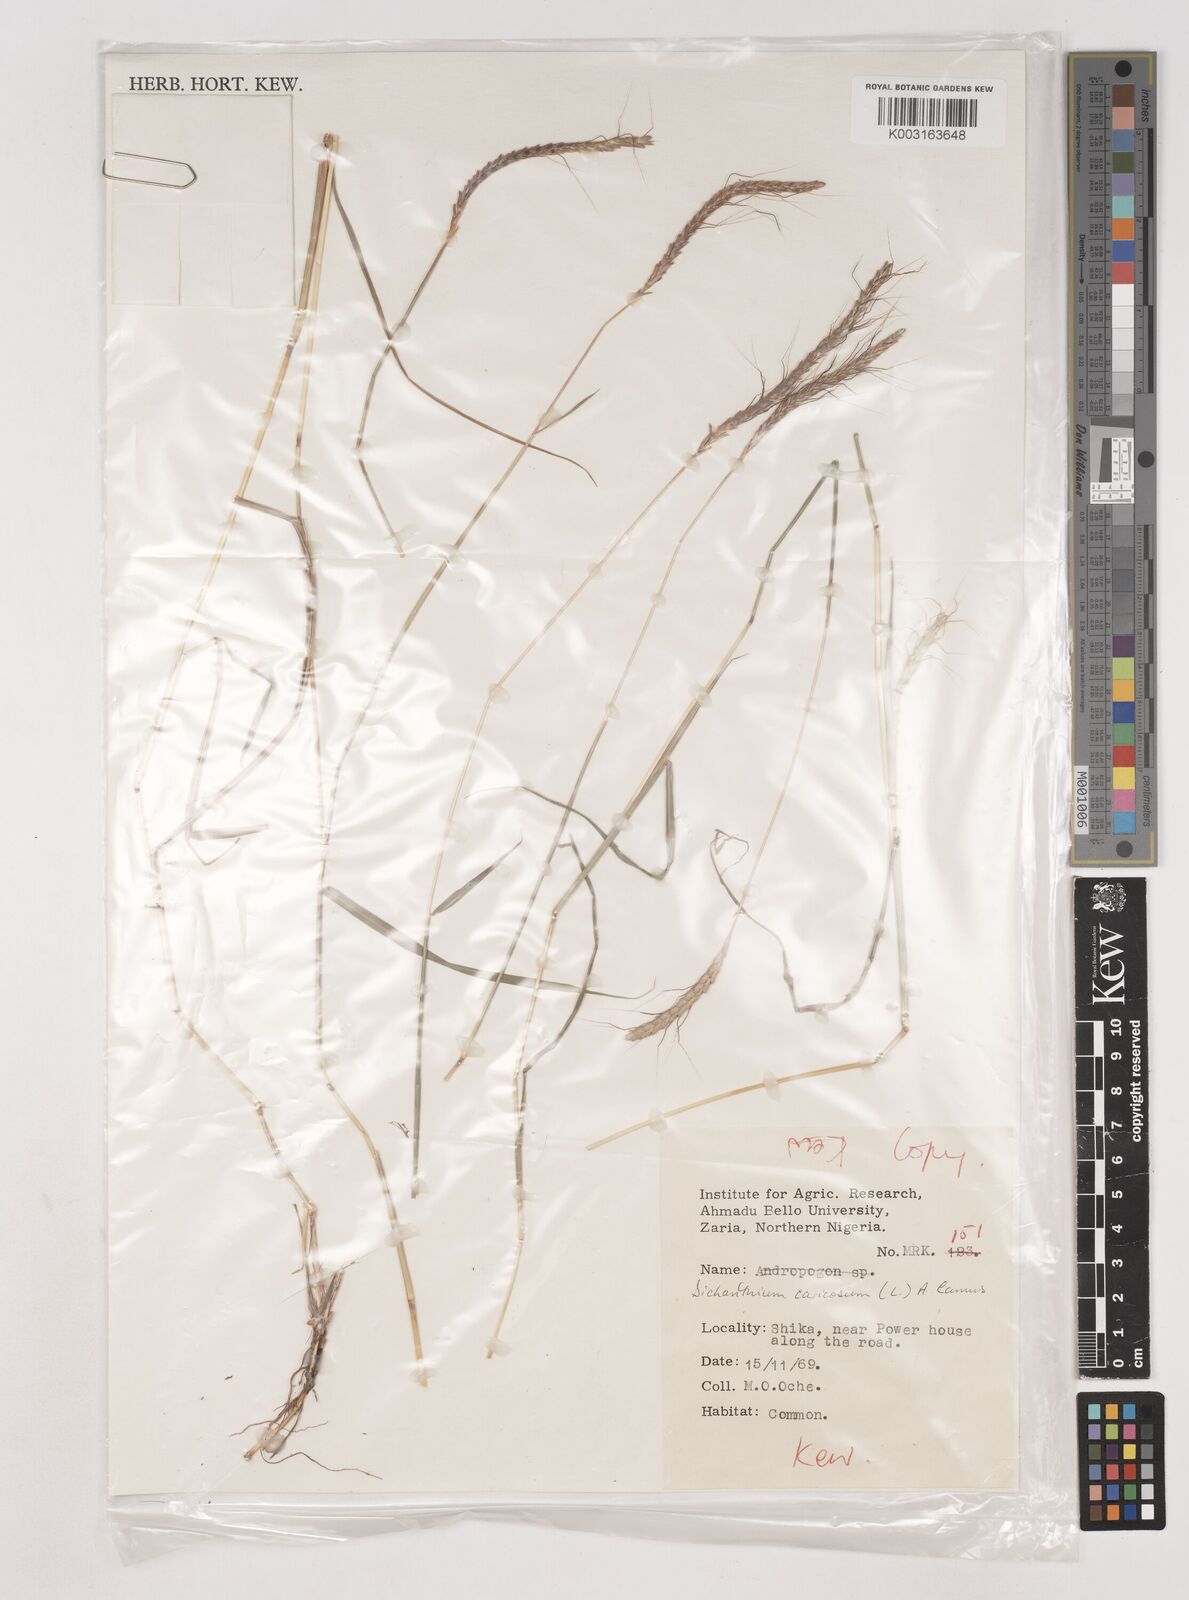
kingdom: Plantae
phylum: Tracheophyta
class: Liliopsida
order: Poales
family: Poaceae
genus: Dichanthium
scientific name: Dichanthium caricosum
